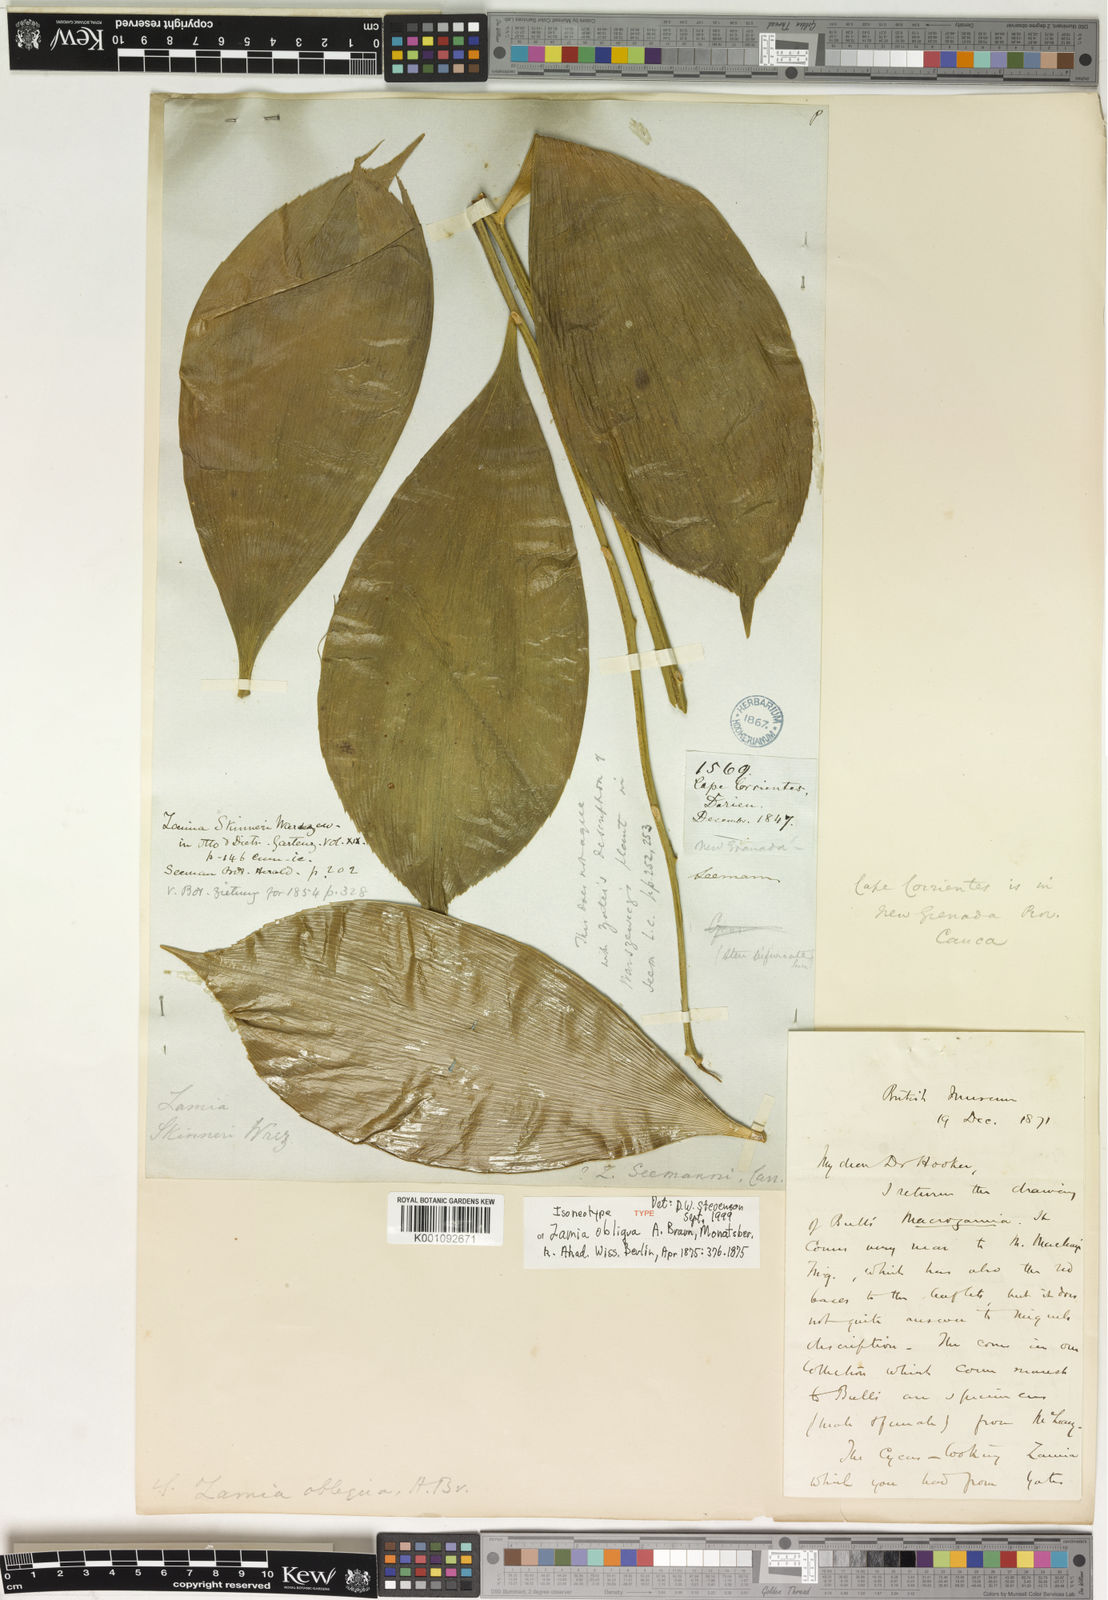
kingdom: Plantae
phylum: Tracheophyta
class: Cycadopsida
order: Cycadales
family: Zamiaceae
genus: Zamia
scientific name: Zamia obliqua
